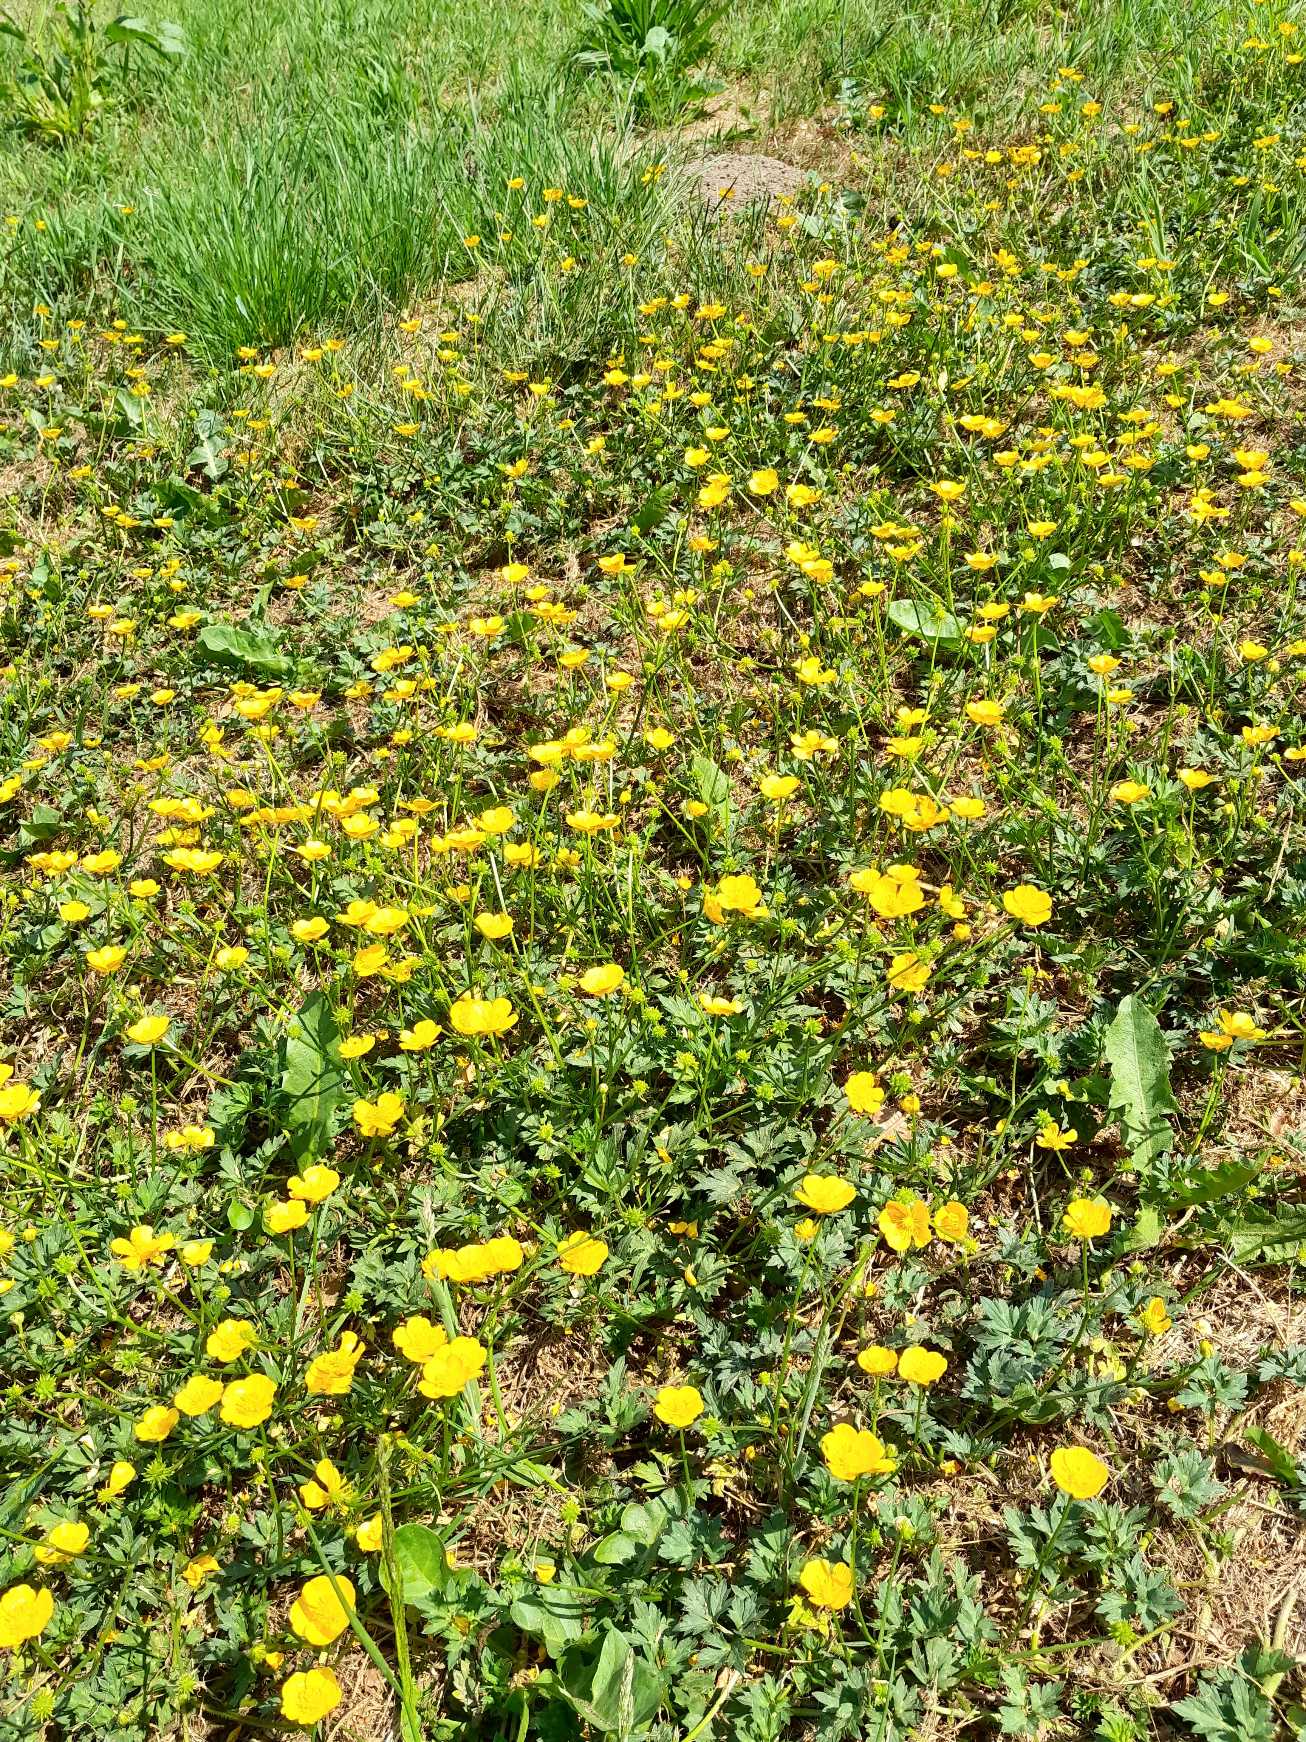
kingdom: Plantae
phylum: Tracheophyta
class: Magnoliopsida
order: Ranunculales
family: Ranunculaceae
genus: Ranunculus
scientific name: Ranunculus repens
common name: Lav ranunkel
